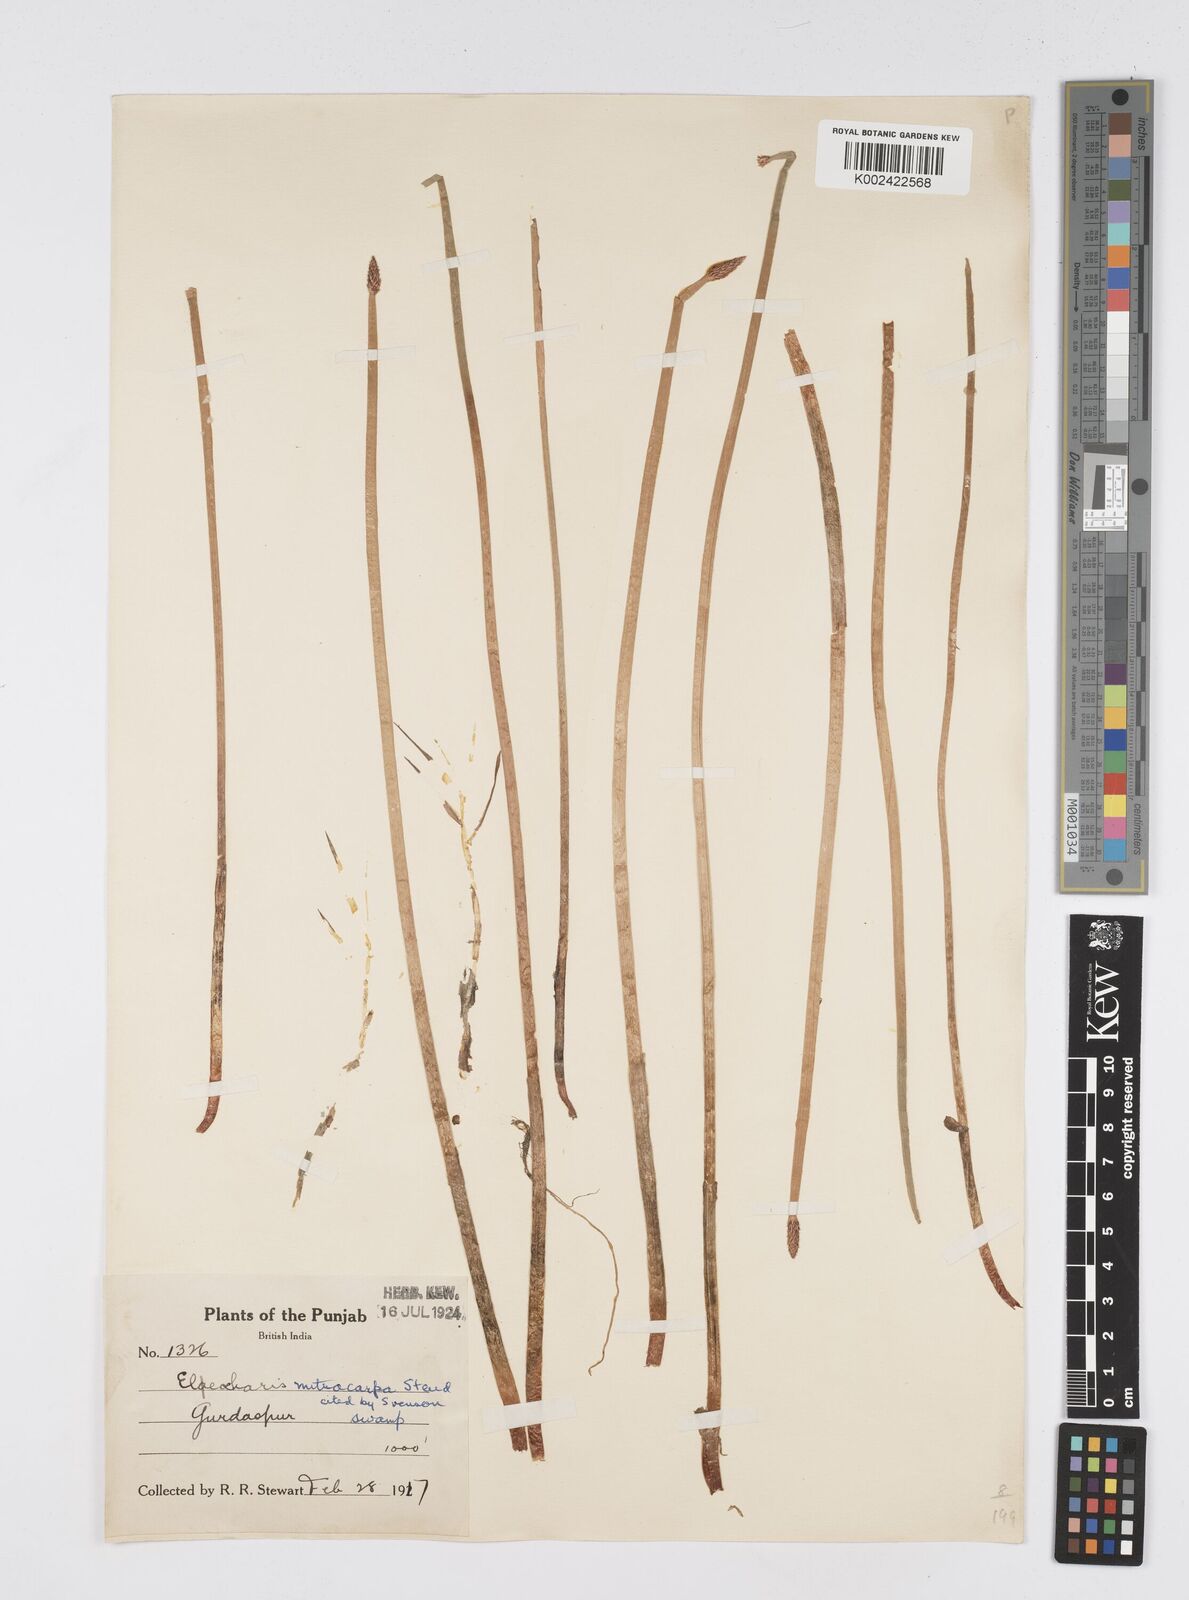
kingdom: Plantae
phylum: Tracheophyta
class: Liliopsida
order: Poales
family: Cyperaceae
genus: Eleocharis
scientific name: Eleocharis mitracarpa
